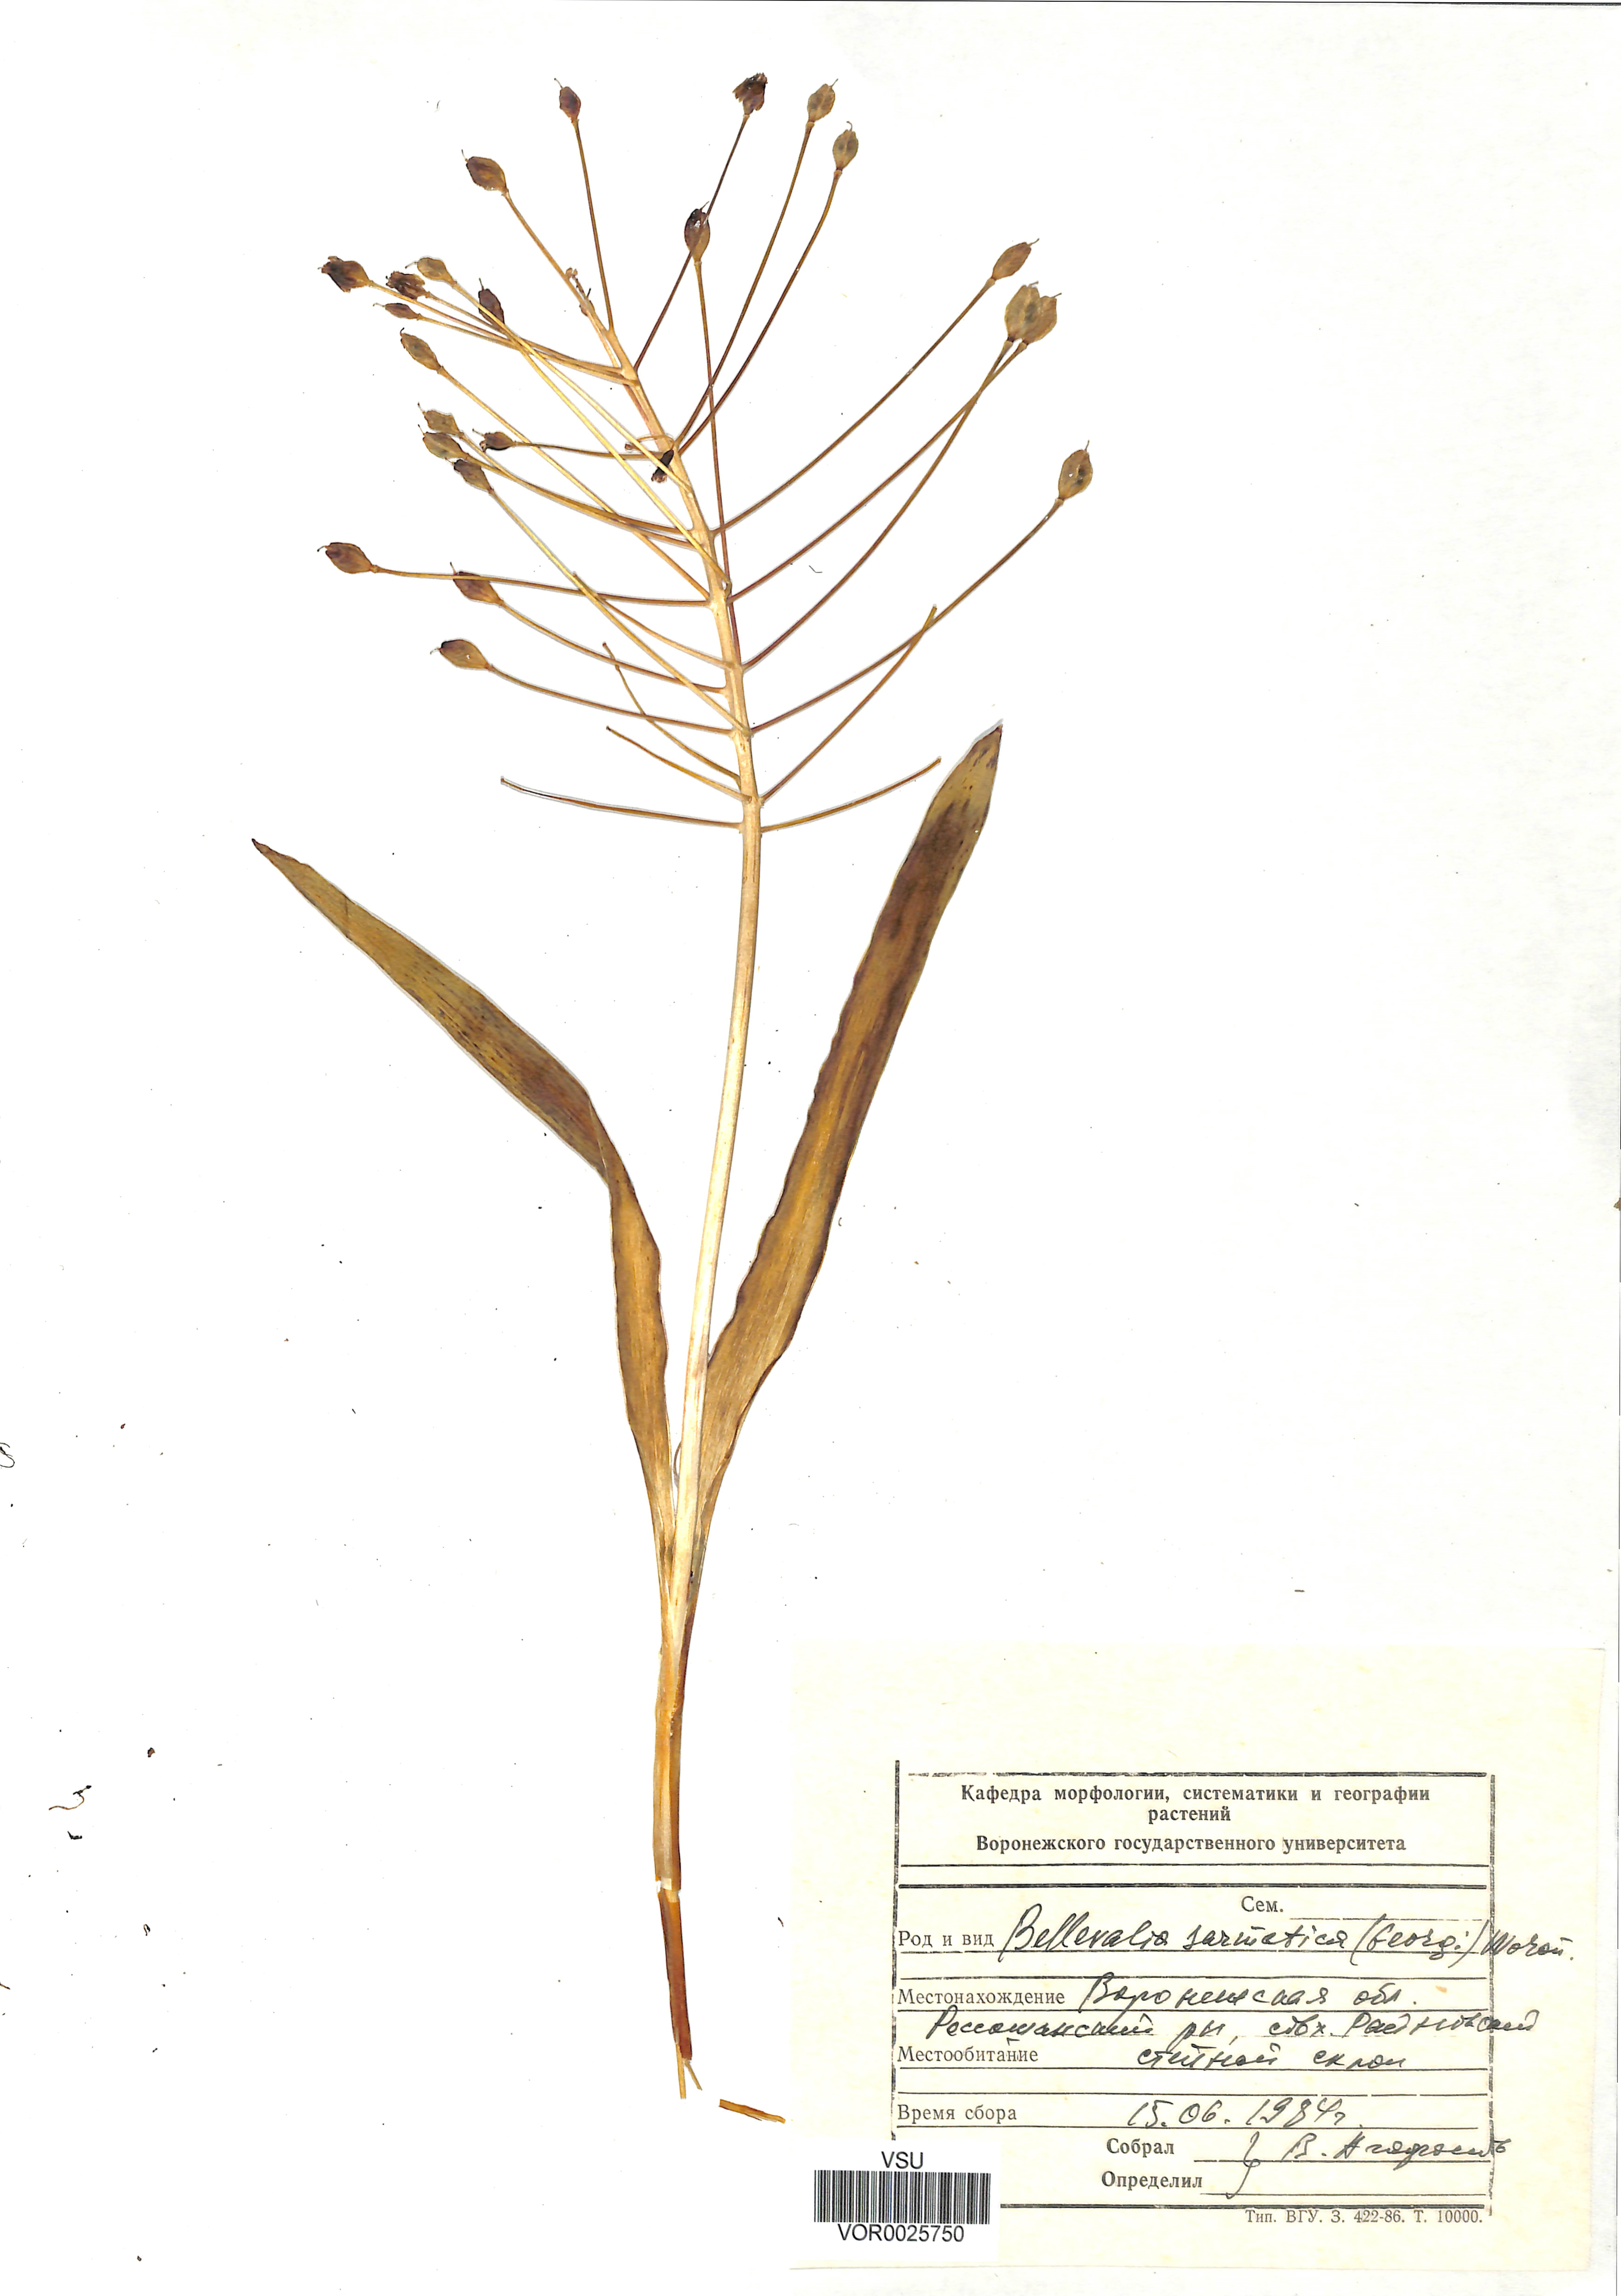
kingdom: Plantae
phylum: Tracheophyta
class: Liliopsida
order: Asparagales
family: Asparagaceae
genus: Bellevalia
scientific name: Bellevalia speciosa
